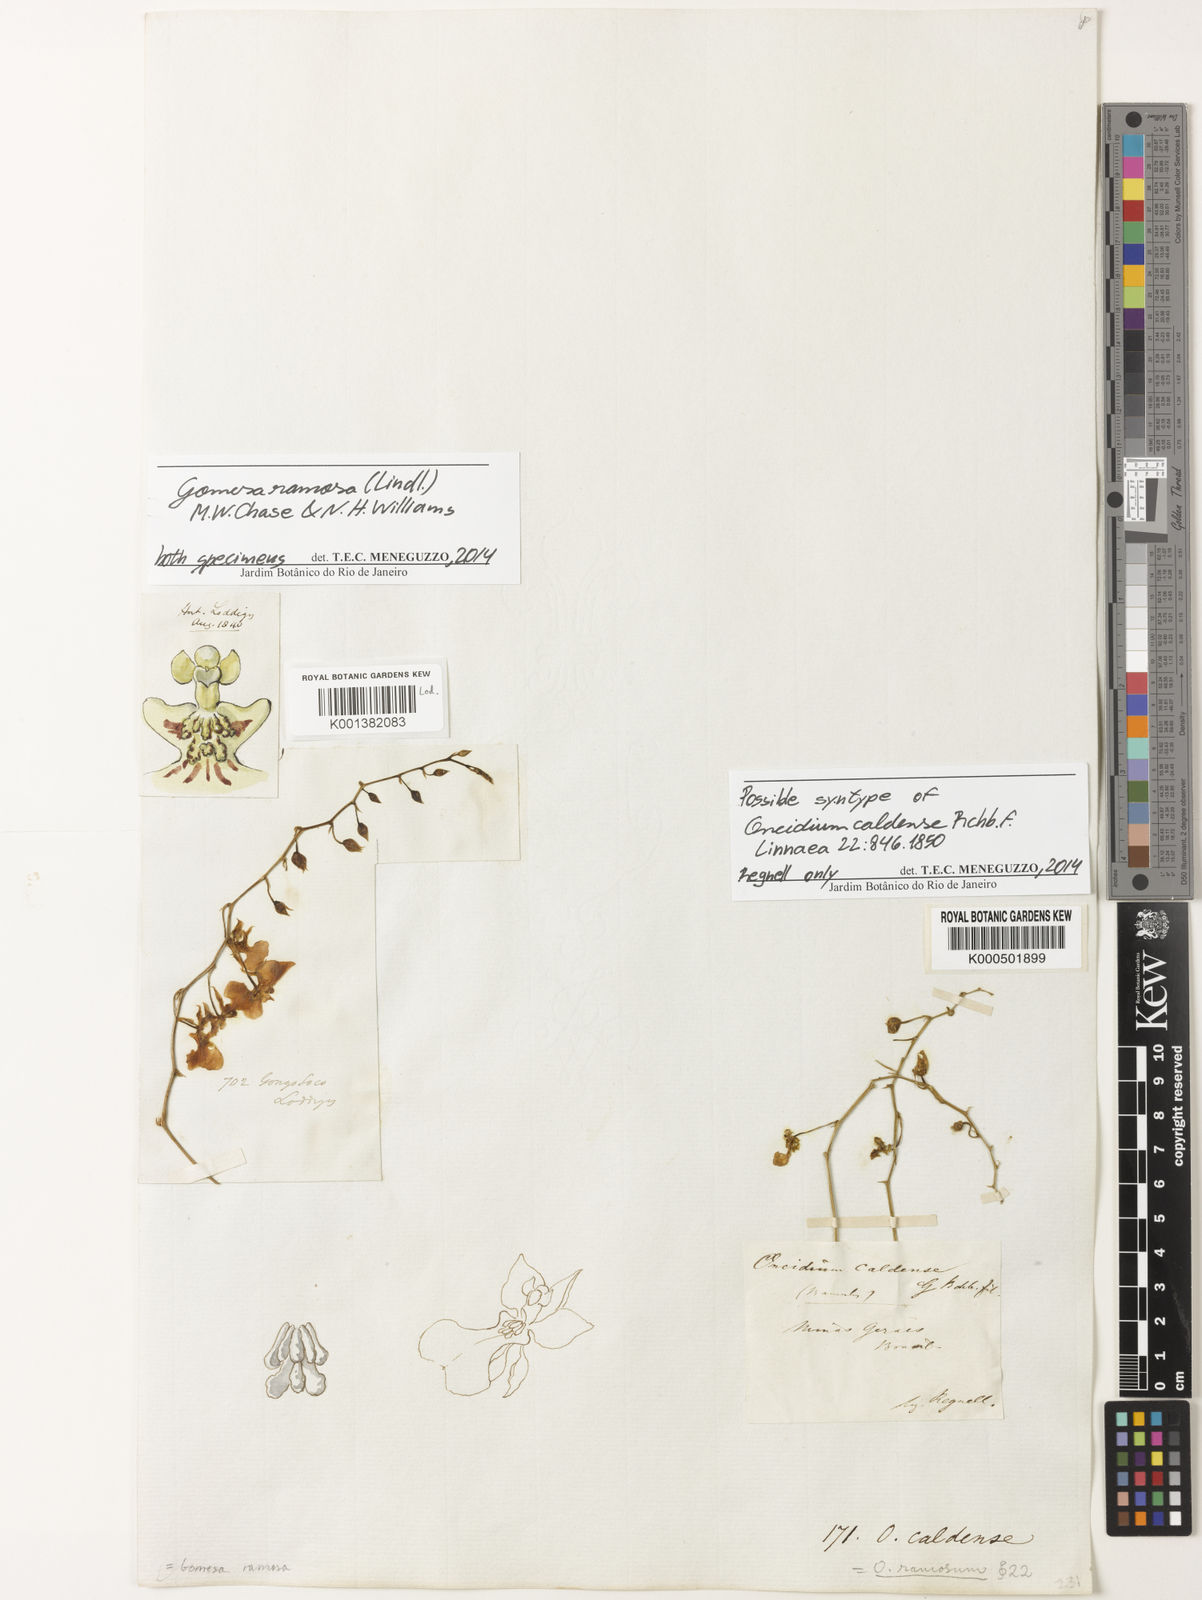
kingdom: Plantae
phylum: Tracheophyta
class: Liliopsida
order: Asparagales
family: Orchidaceae
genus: Gomesa
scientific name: Gomesa ramosa
